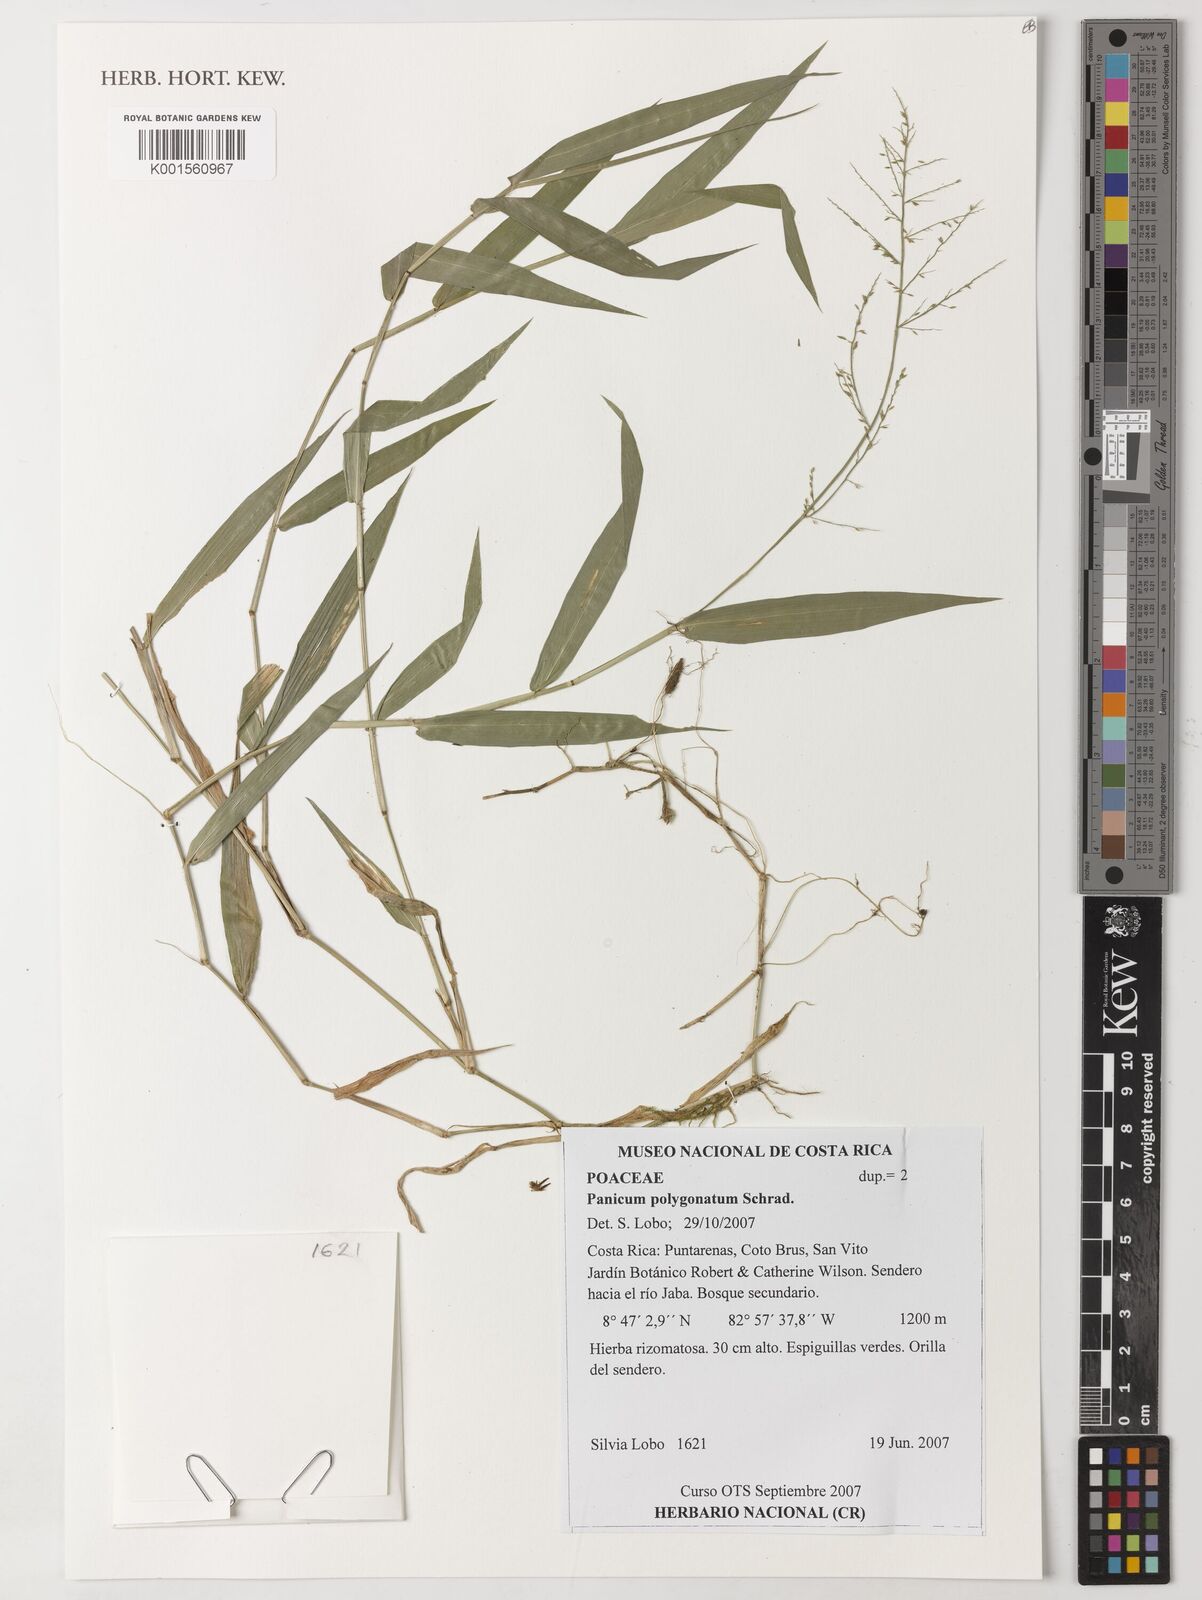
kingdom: Plantae
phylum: Tracheophyta
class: Liliopsida
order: Poales
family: Poaceae
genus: Rugoloa
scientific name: Rugoloa polygonata
